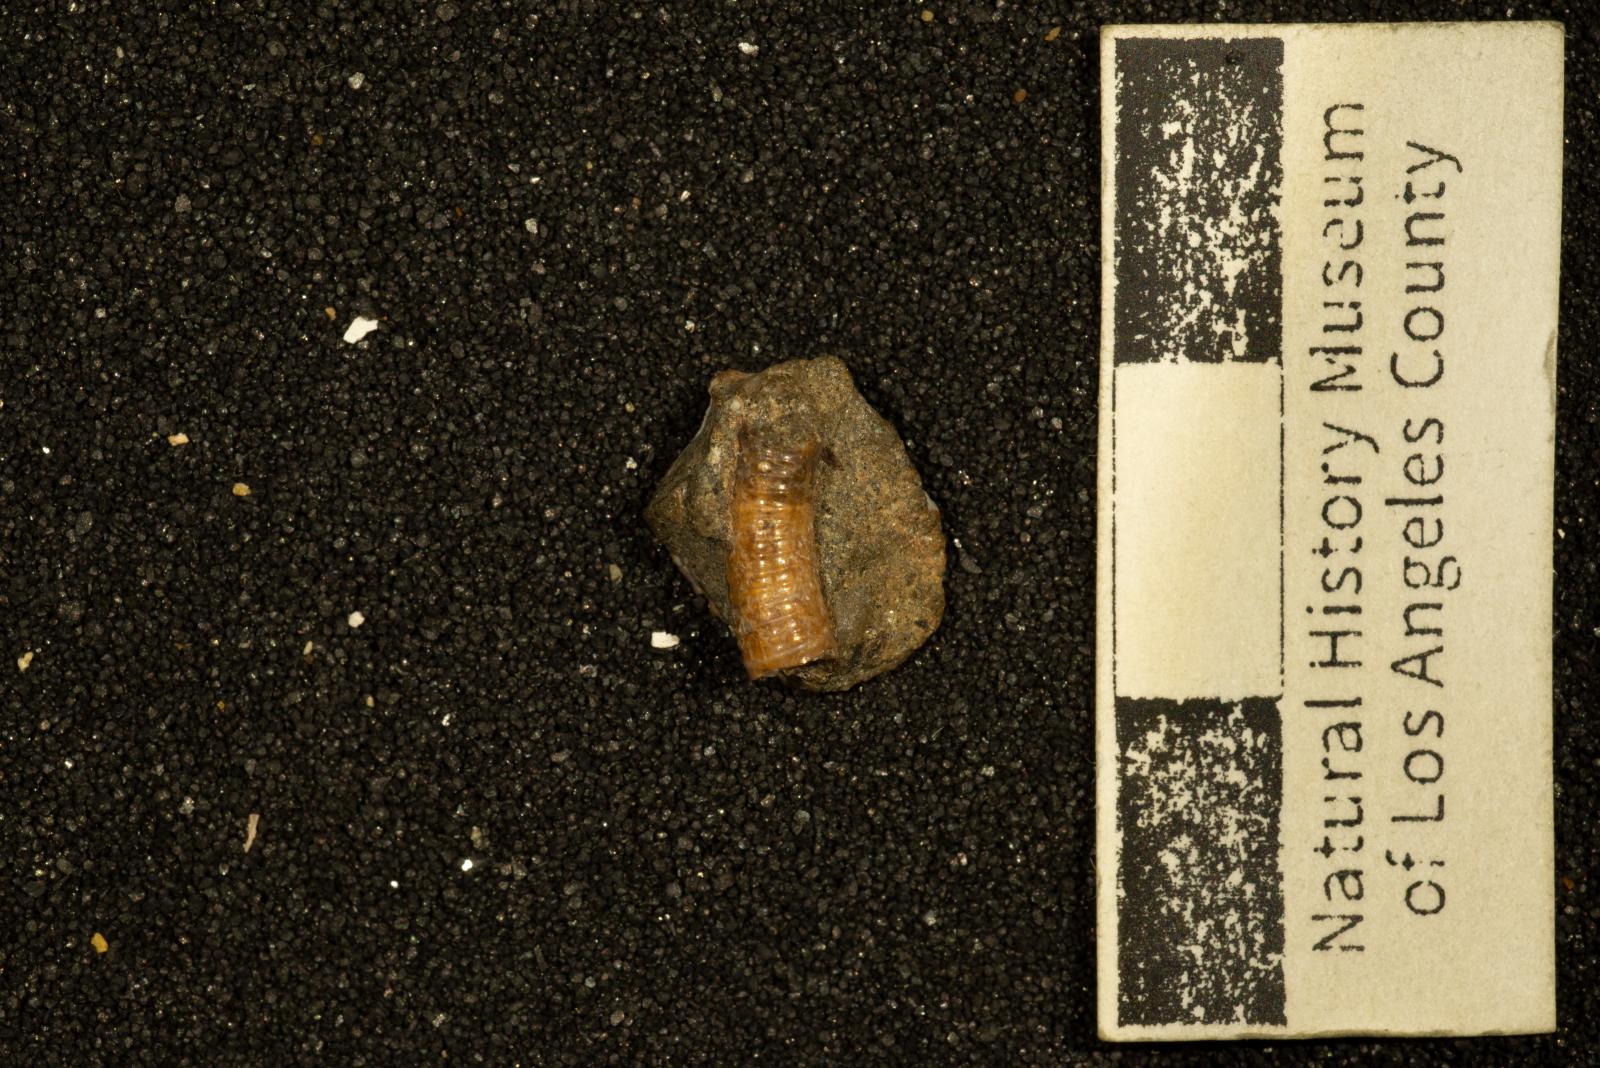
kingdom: Animalia
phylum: Mollusca
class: Cephalopoda
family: Diplomoceratidae
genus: Scalarites
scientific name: Scalarites mihoensis
